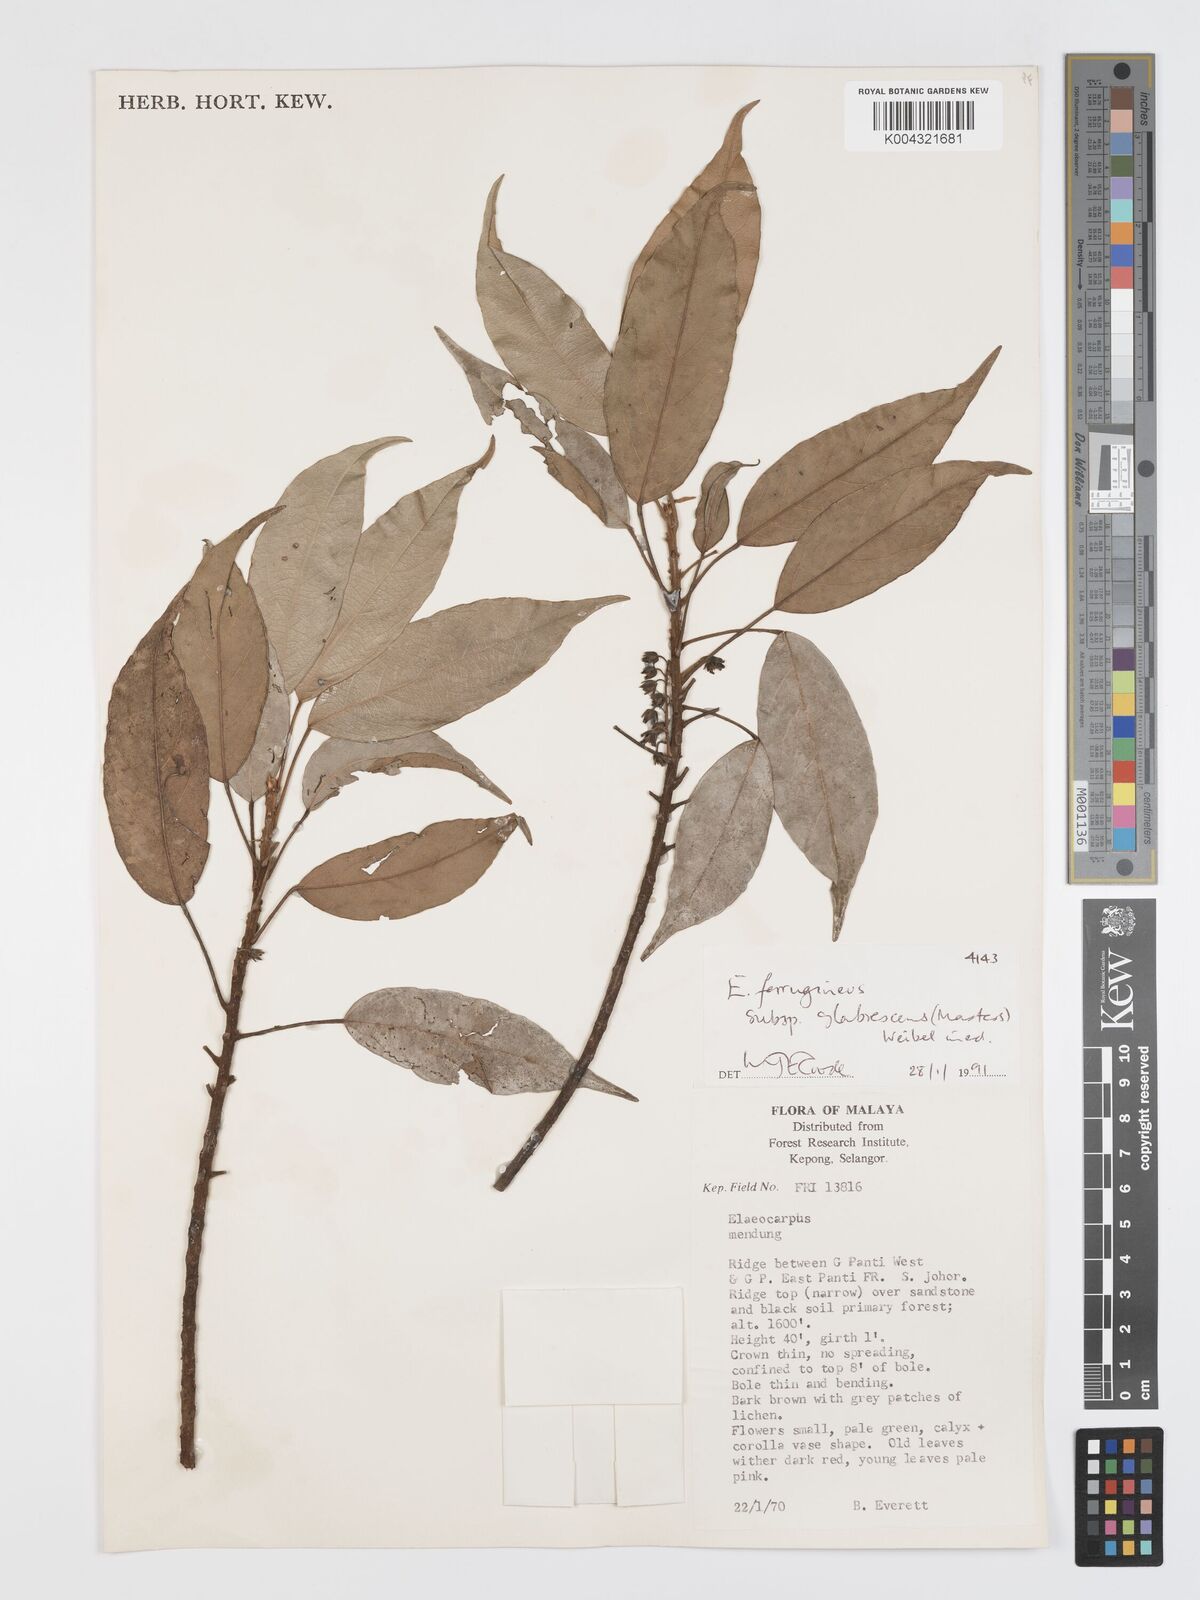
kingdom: Plantae
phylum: Tracheophyta
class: Magnoliopsida
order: Oxalidales
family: Elaeocarpaceae
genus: Elaeocarpus
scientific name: Elaeocarpus ferrugineus
